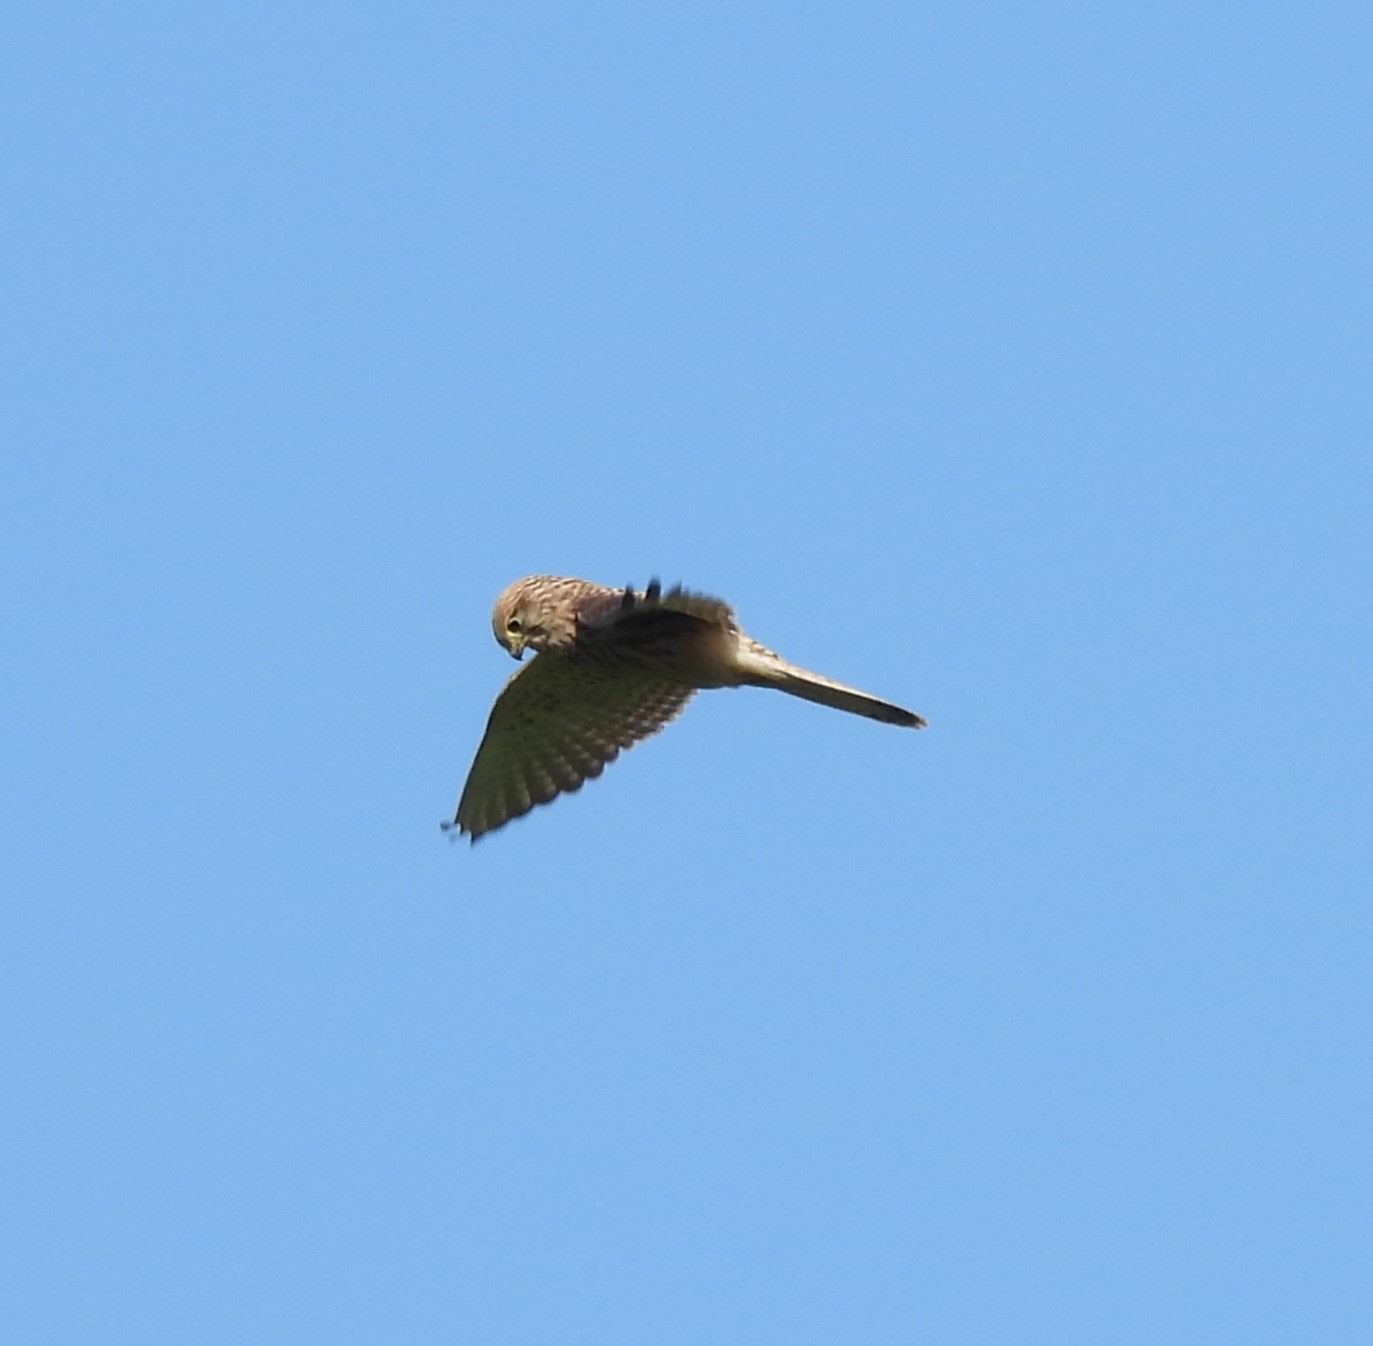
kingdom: Animalia
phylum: Chordata
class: Aves
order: Falconiformes
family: Falconidae
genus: Falco
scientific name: Falco tinnunculus
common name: Tårnfalk
